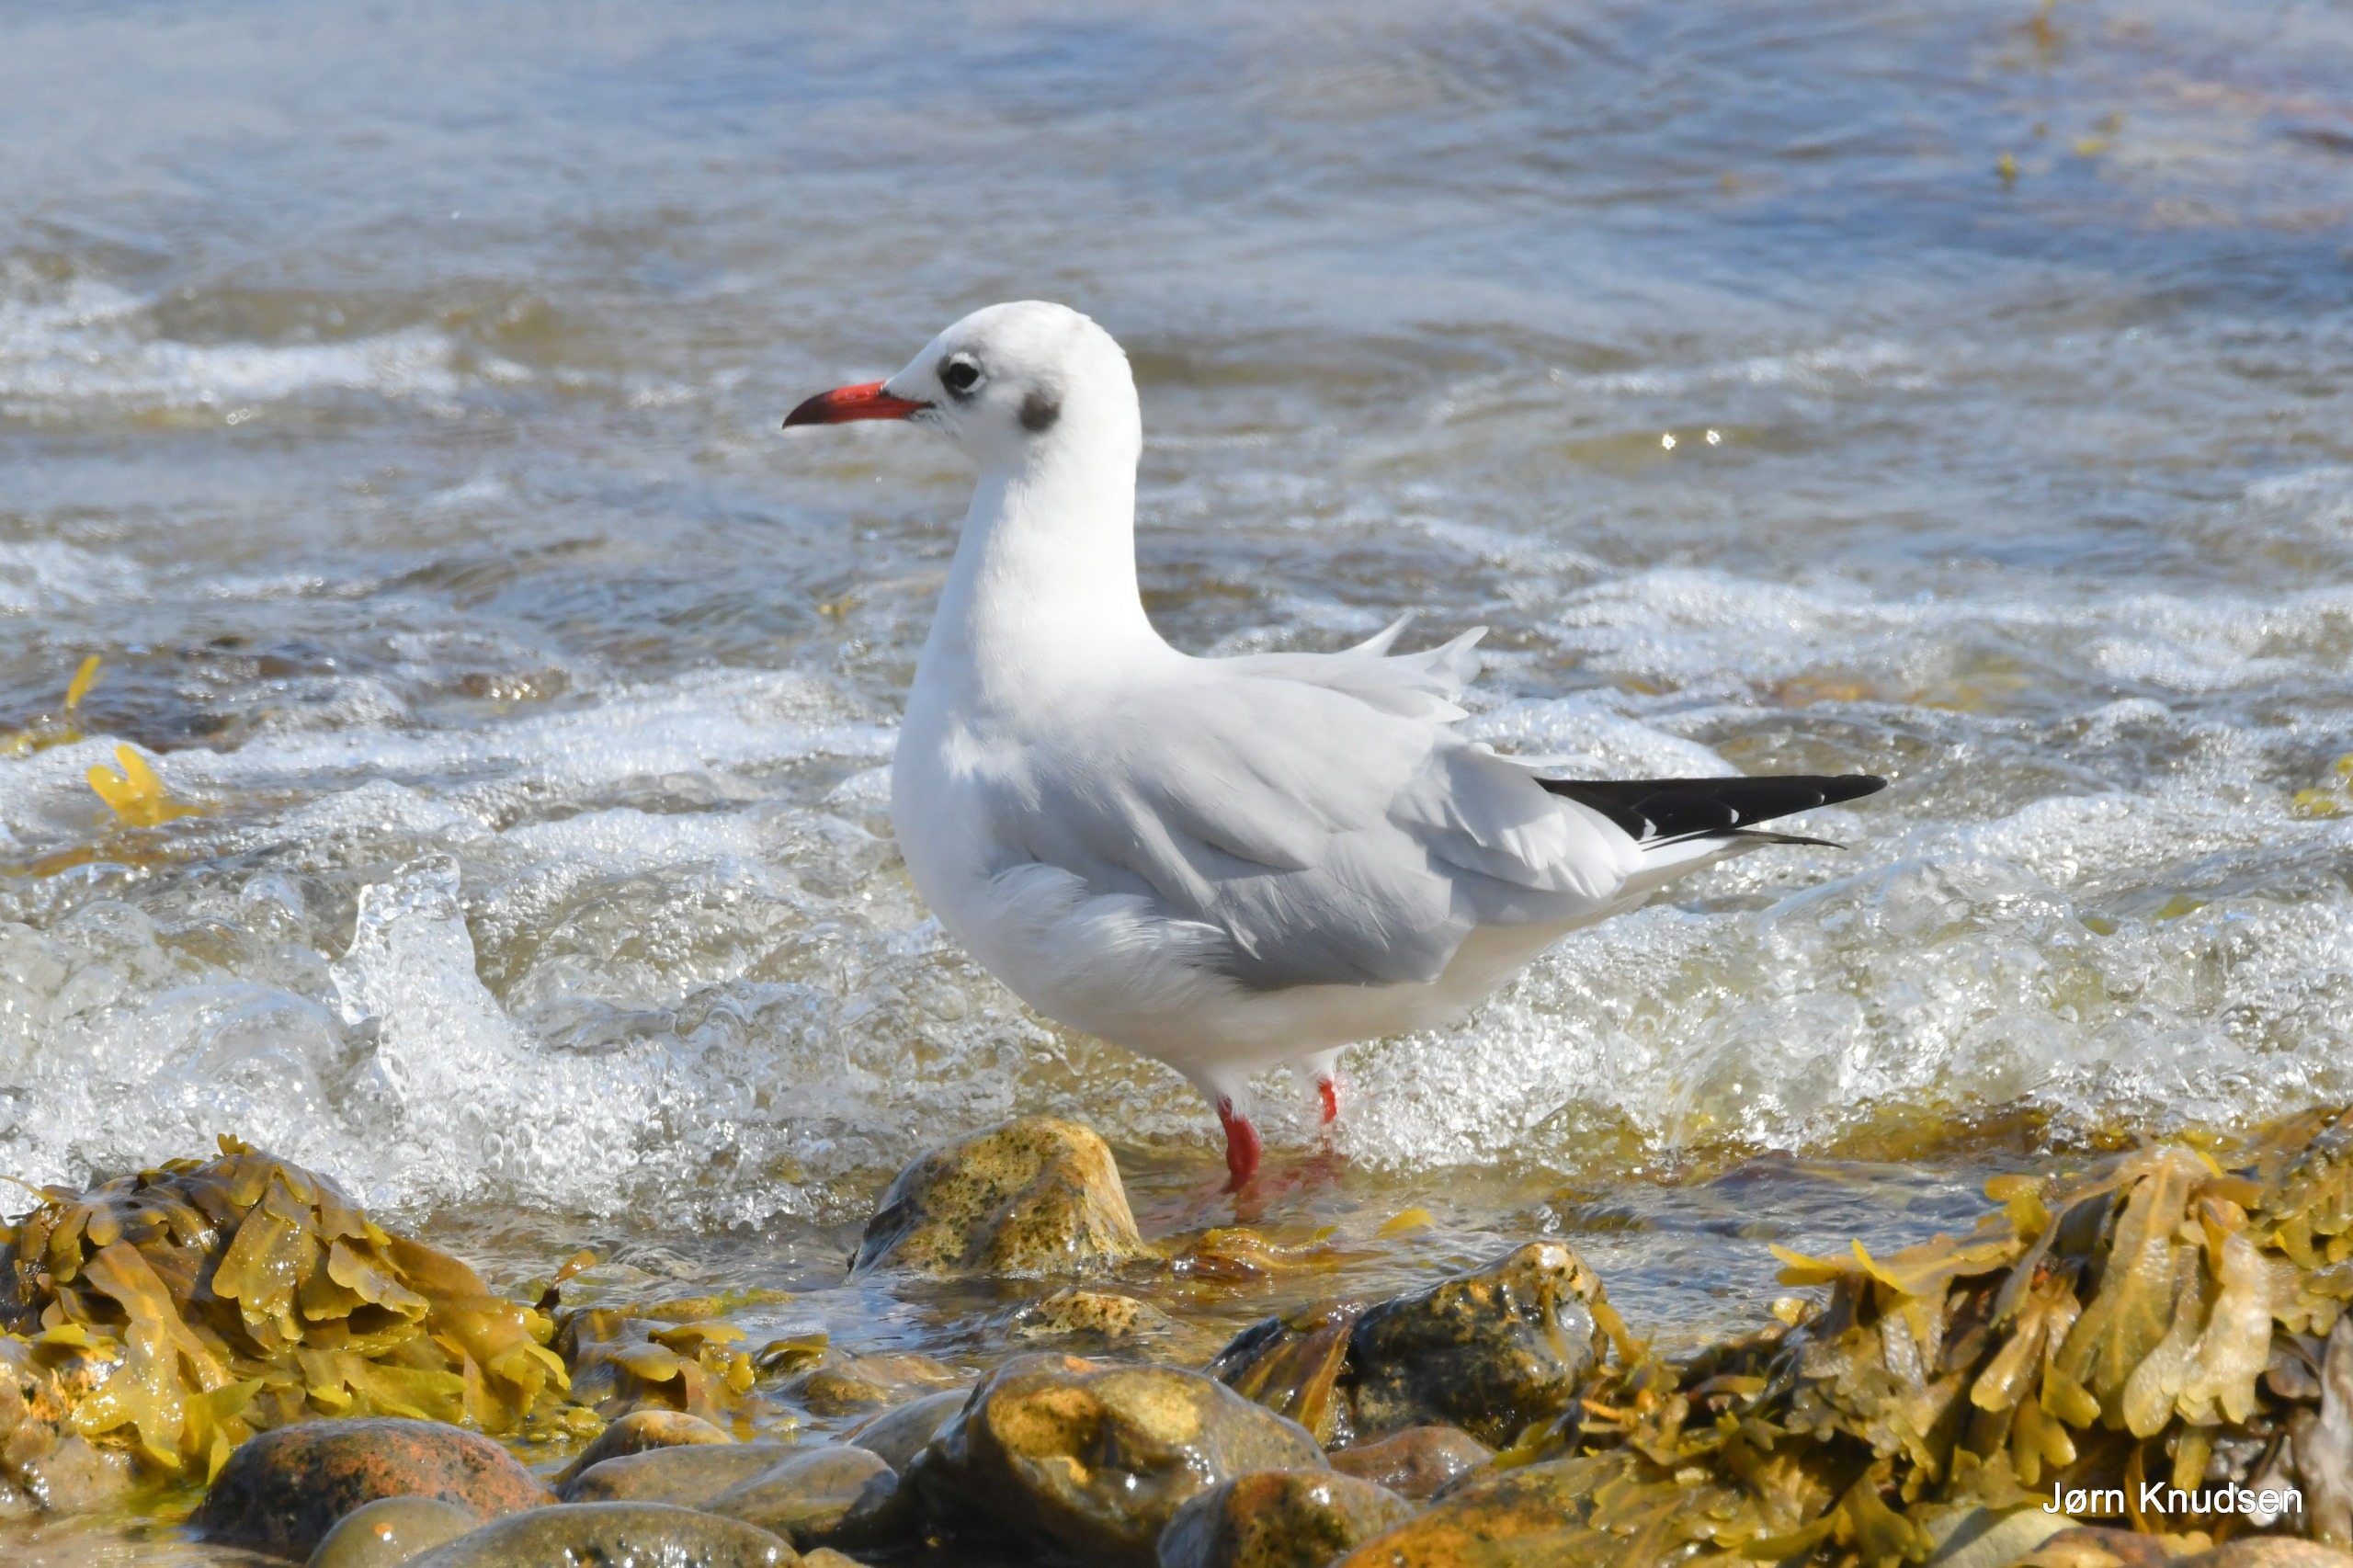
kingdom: Animalia
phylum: Chordata
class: Aves
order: Charadriiformes
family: Laridae
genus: Chroicocephalus
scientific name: Chroicocephalus ridibundus
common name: Hættemåge
